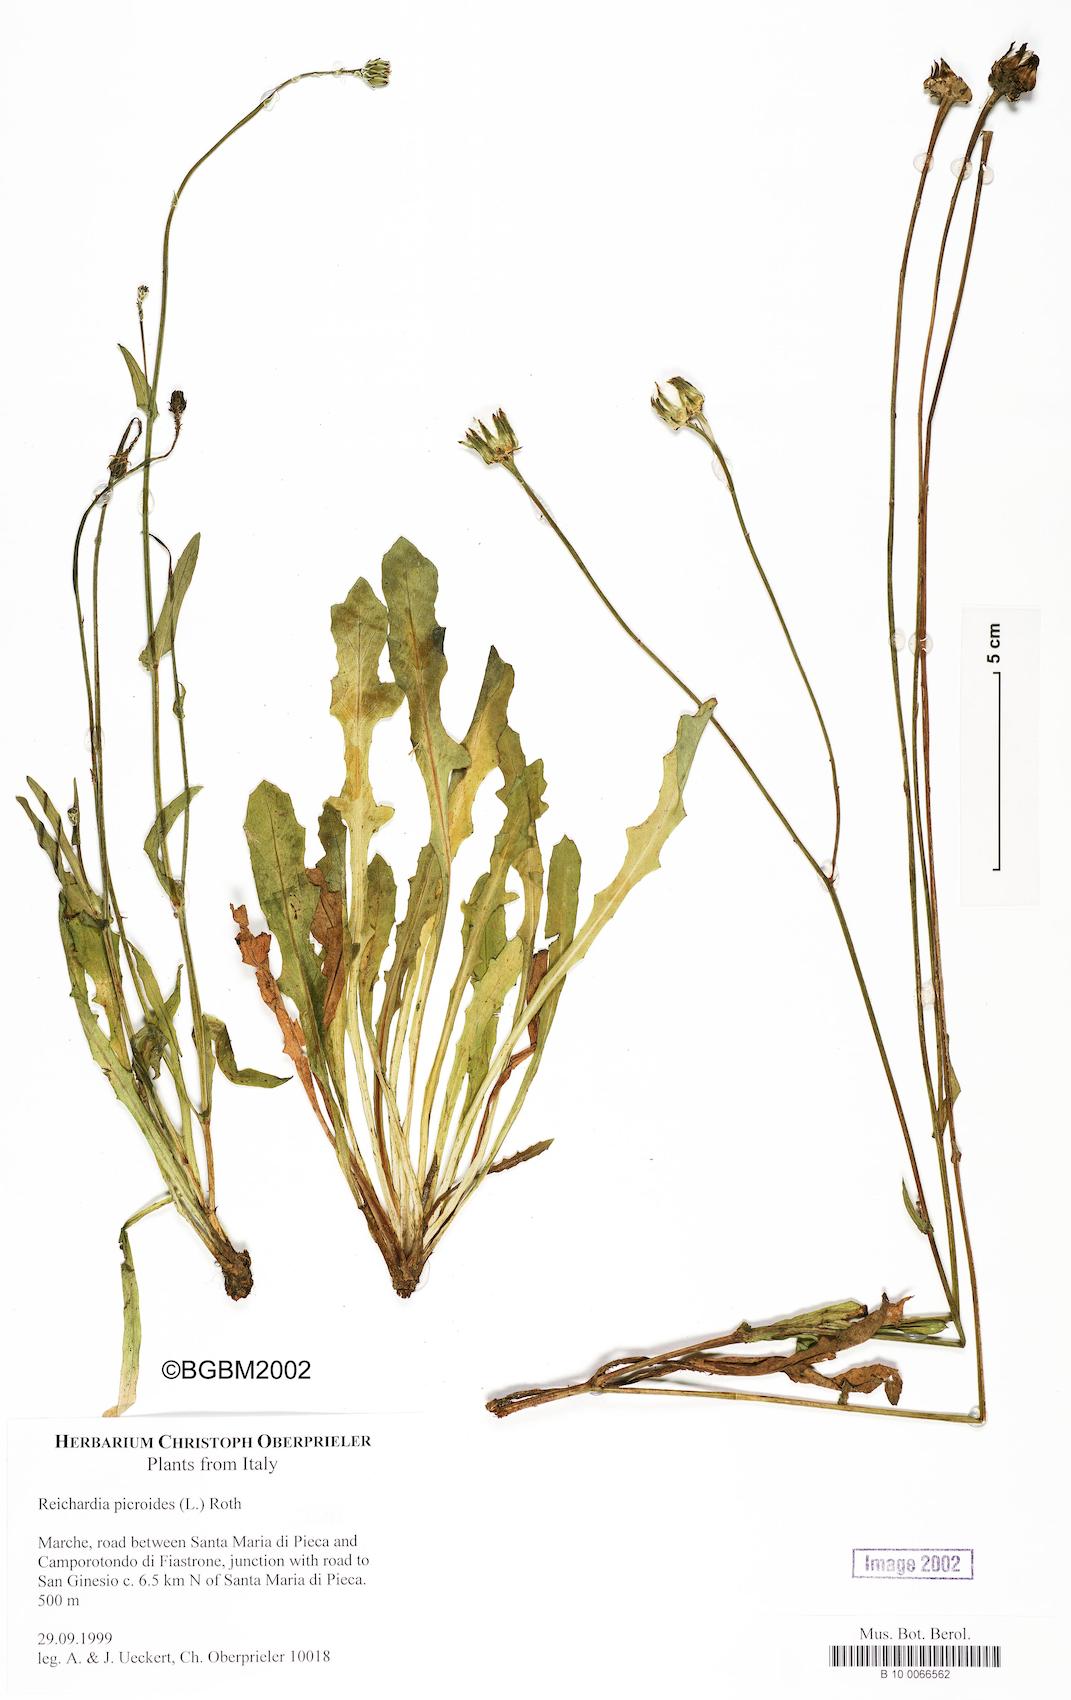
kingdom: Plantae
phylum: Tracheophyta
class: Magnoliopsida
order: Asterales
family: Asteraceae
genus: Reichardia
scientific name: Reichardia picroides
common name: Common brighteyes
